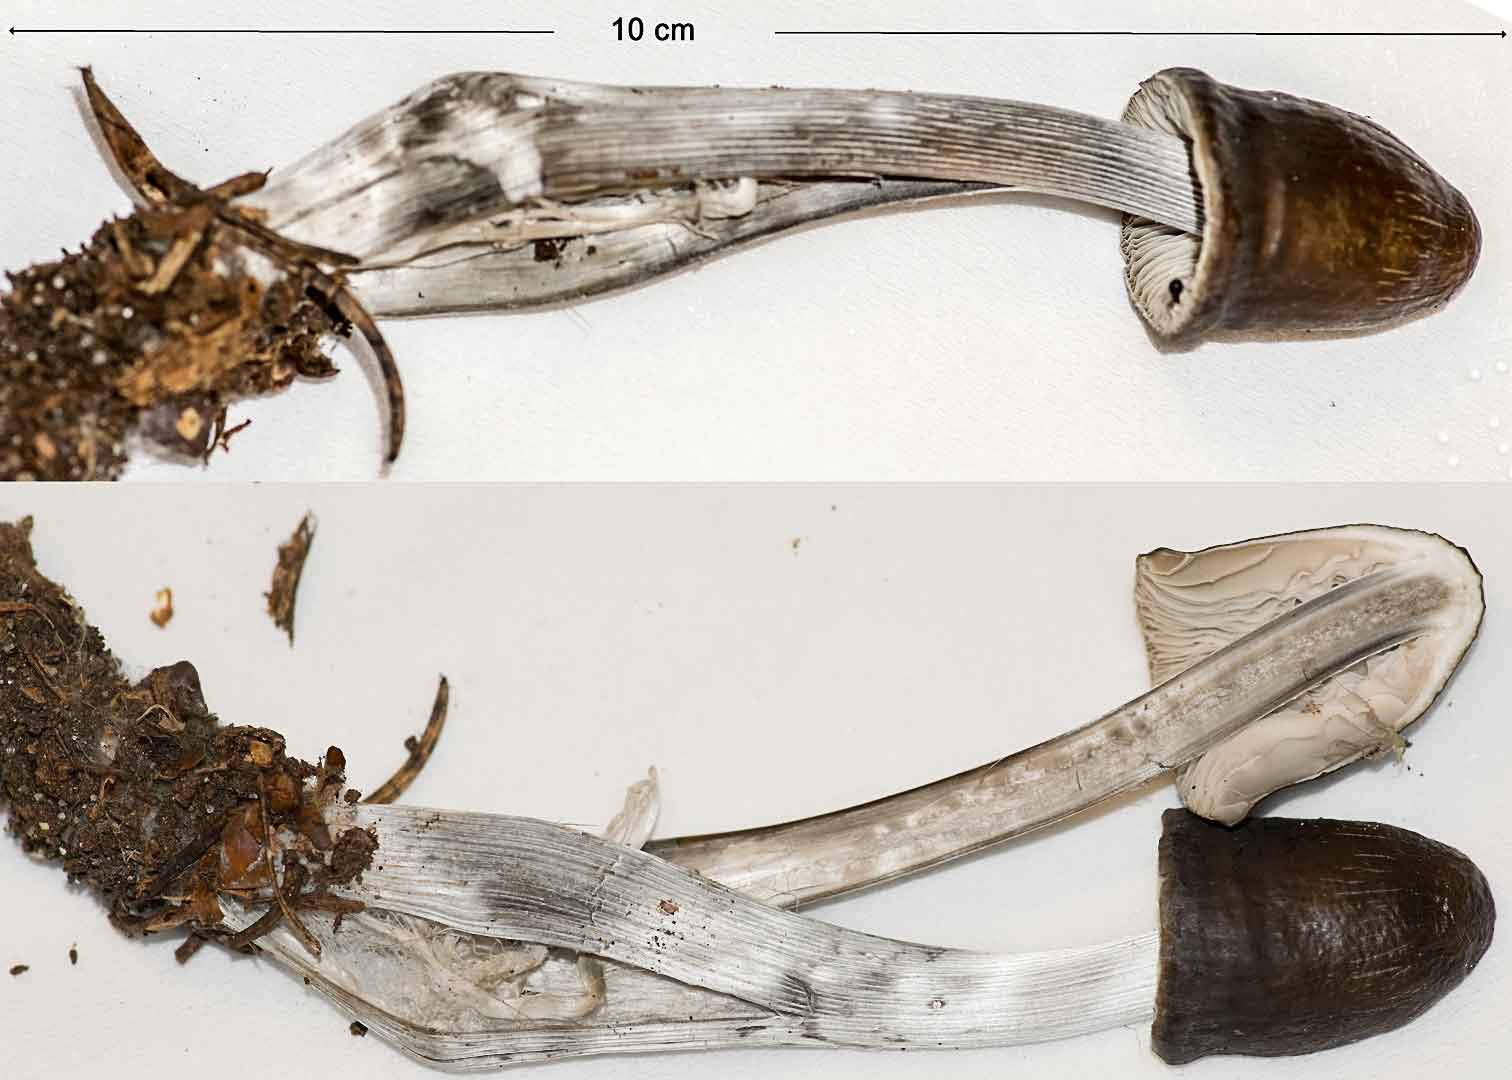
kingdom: Fungi
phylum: Basidiomycota
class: Agaricomycetes
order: Agaricales
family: Mycenaceae
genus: Mycena
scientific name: Mycena polygramma
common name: mangestribet huesvamp
